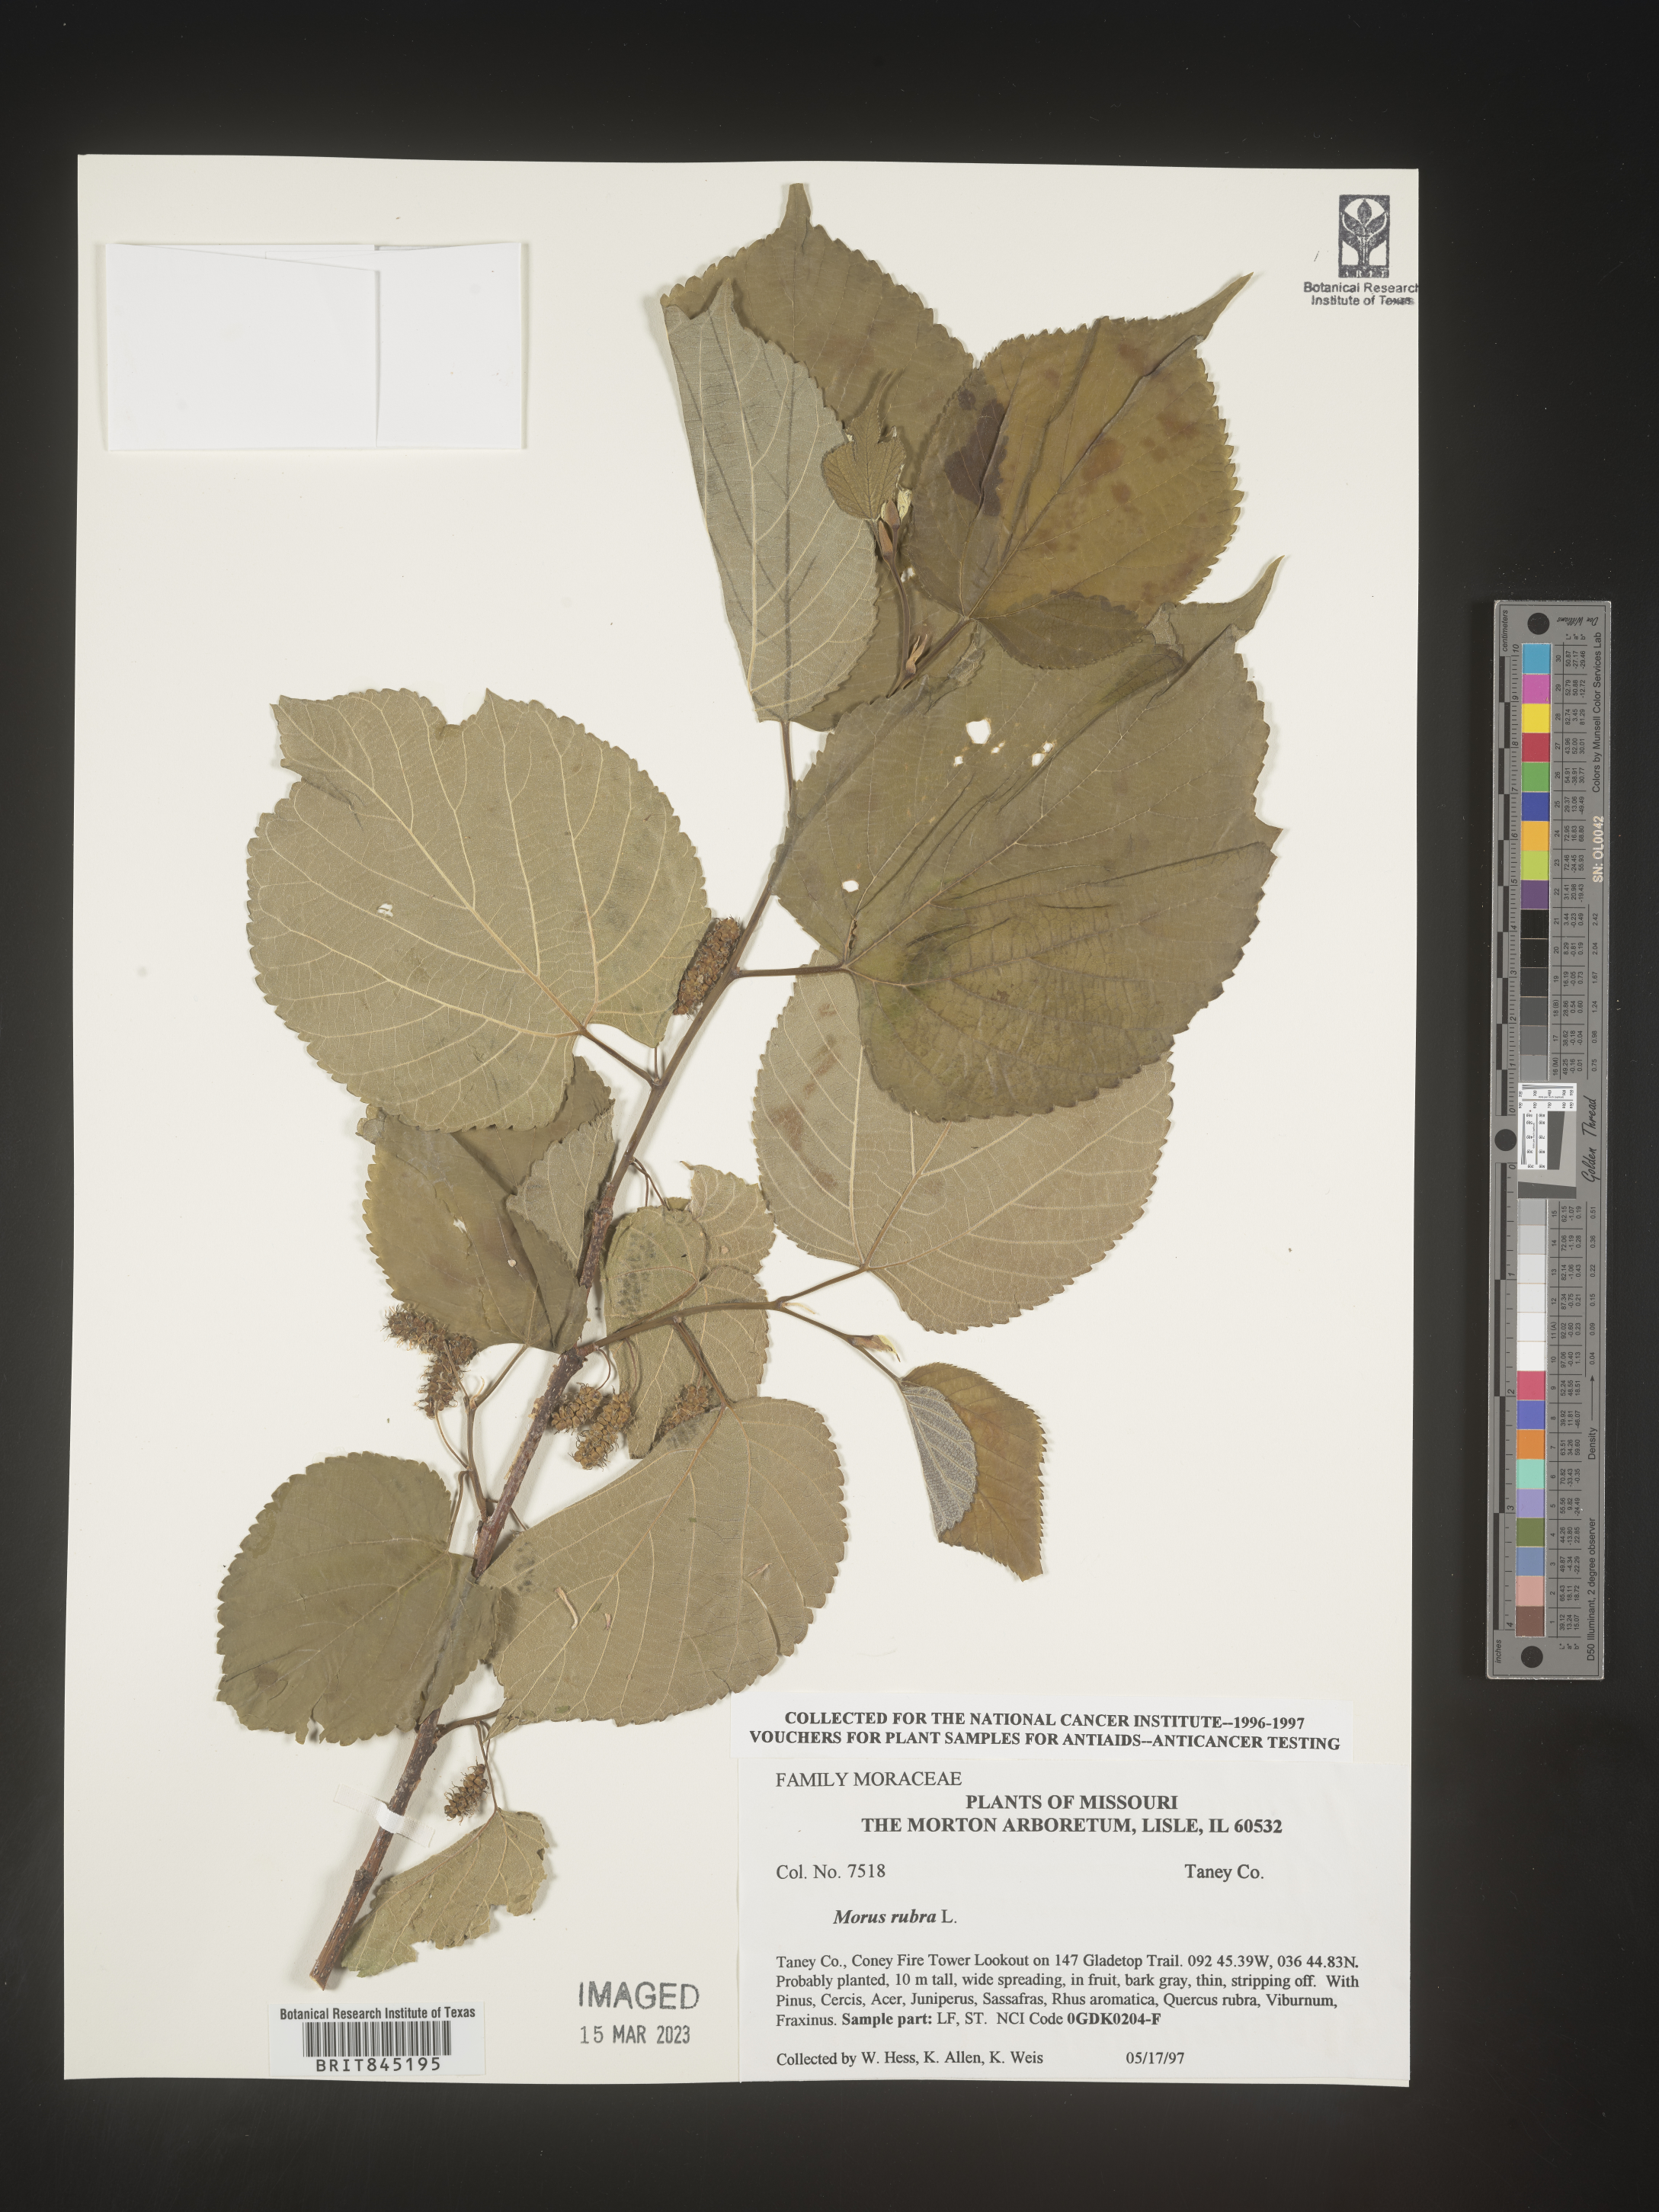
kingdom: Plantae
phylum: Tracheophyta
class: Magnoliopsida
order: Rosales
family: Moraceae
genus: Morus
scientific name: Morus rubra
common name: Red mulberry
